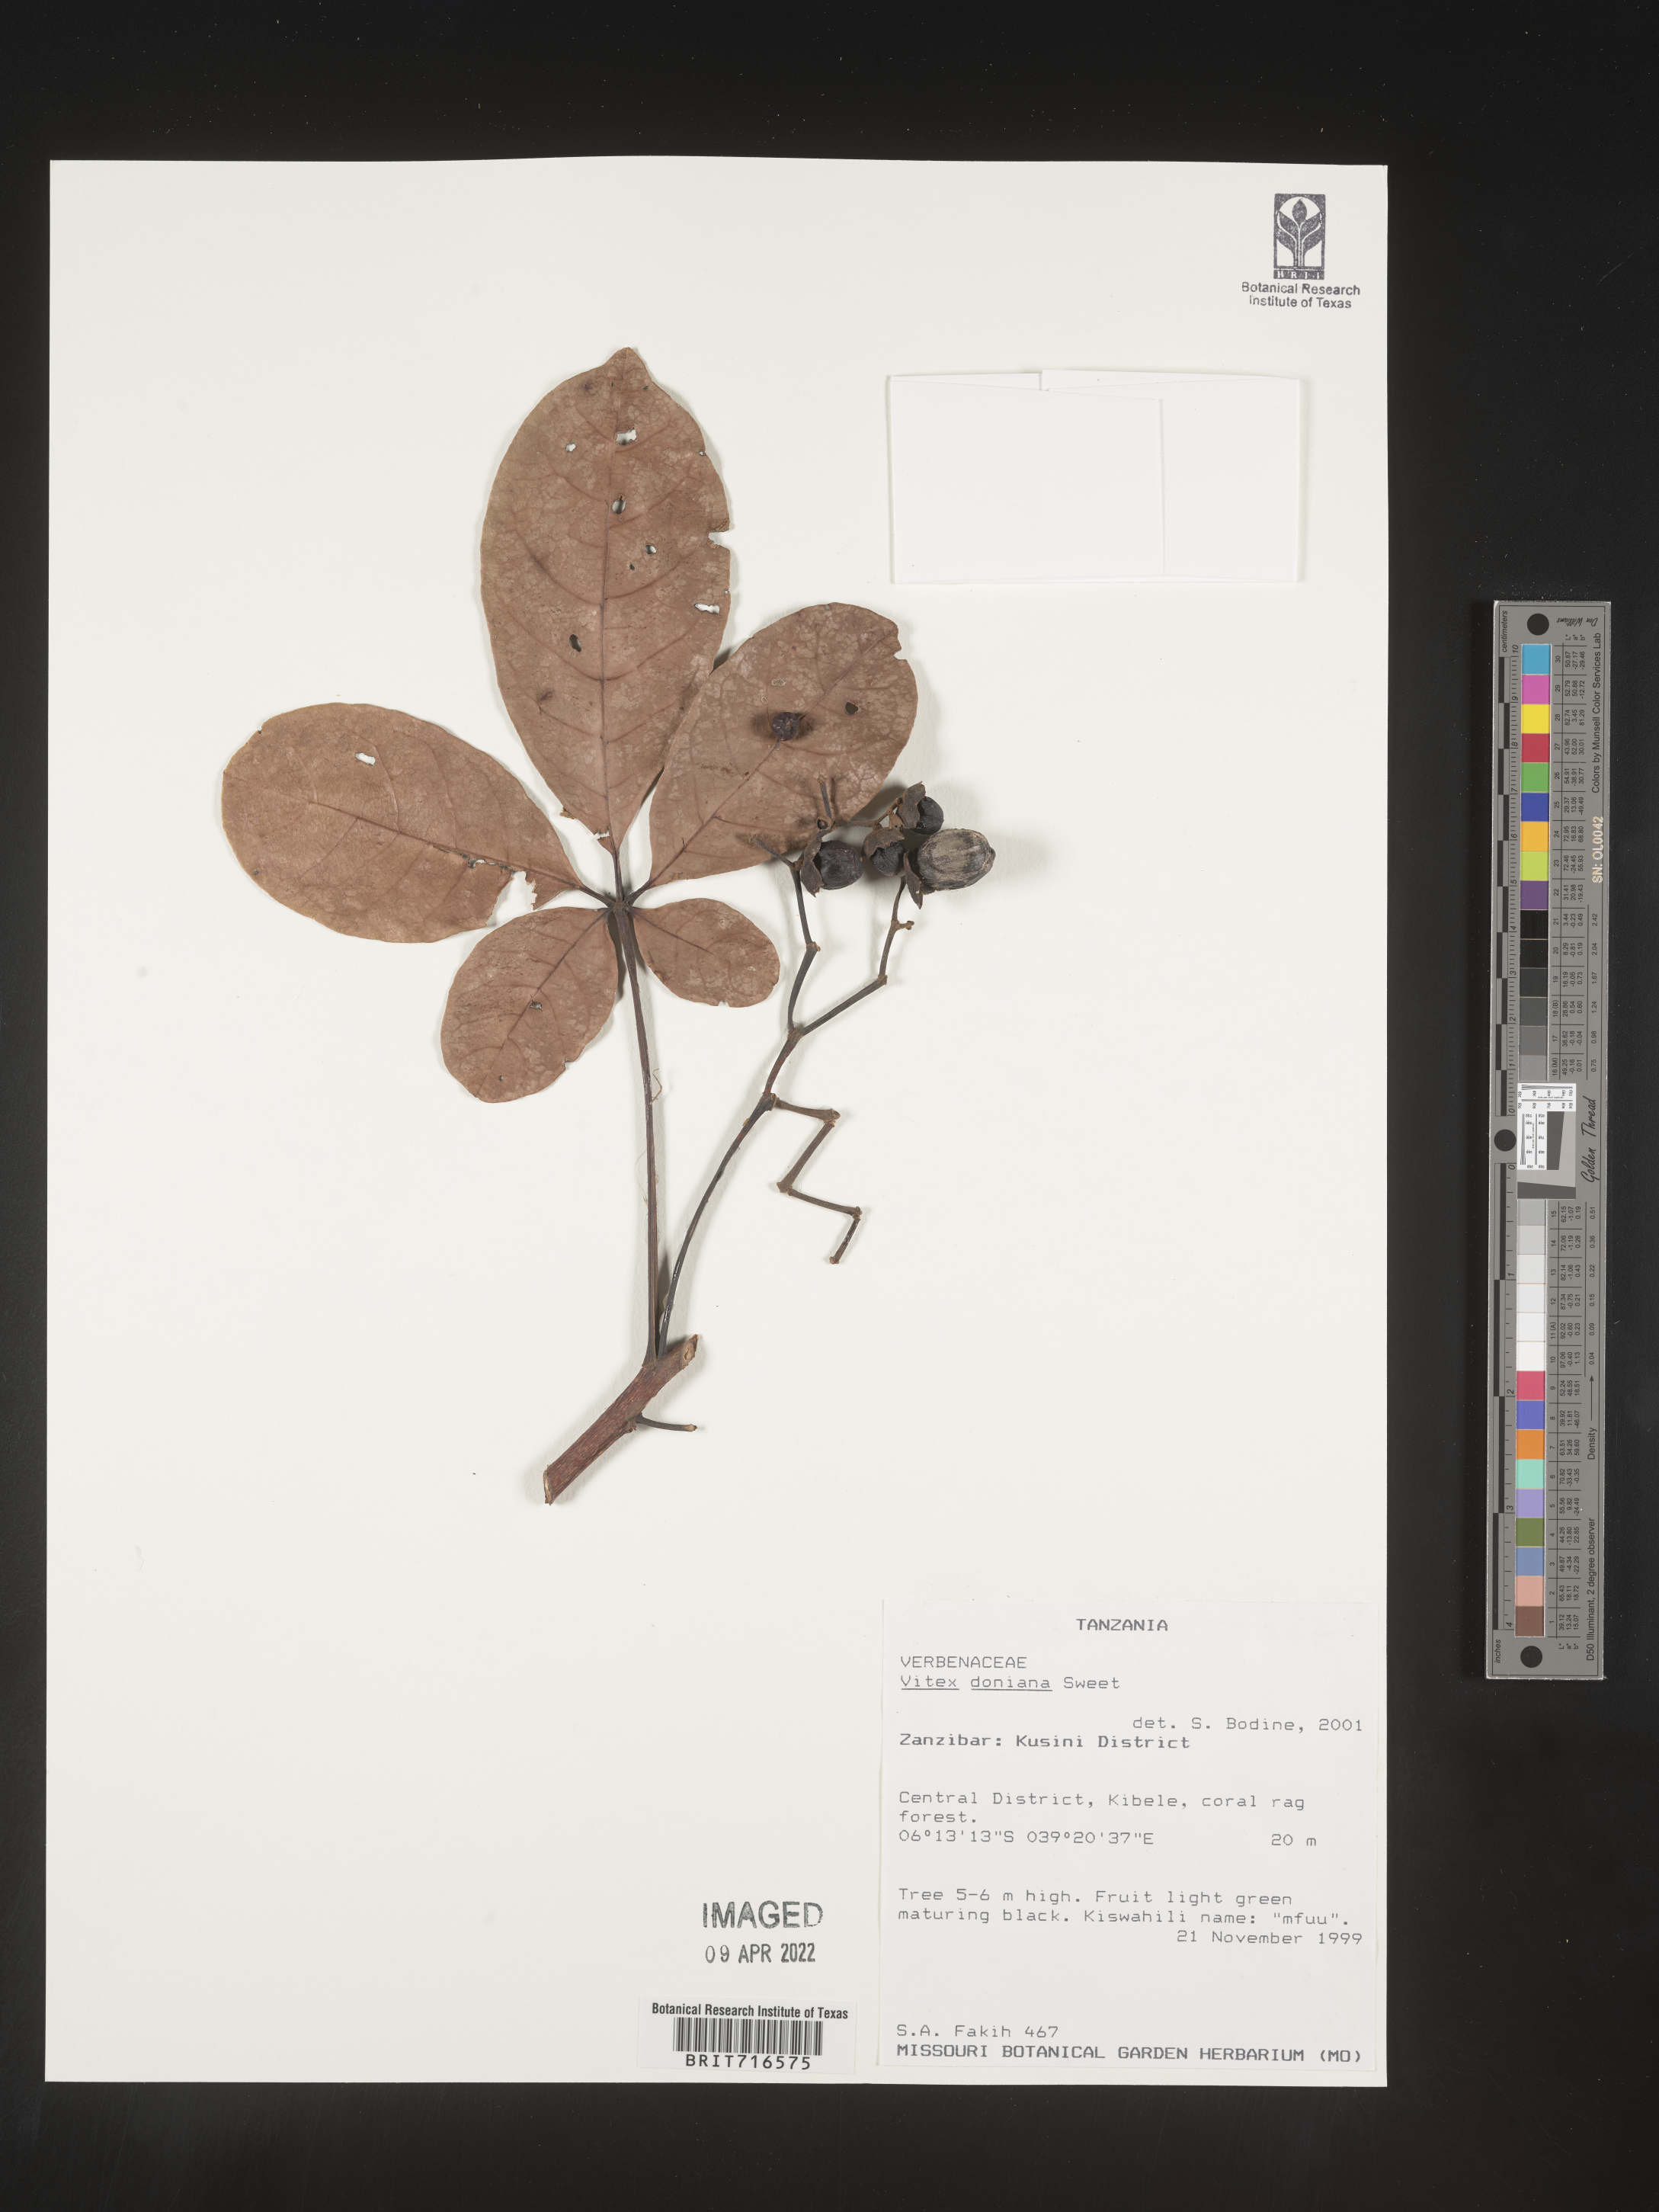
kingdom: Plantae
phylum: Tracheophyta
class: Magnoliopsida
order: Lamiales
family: Lamiaceae
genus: Vitex
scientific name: Vitex
